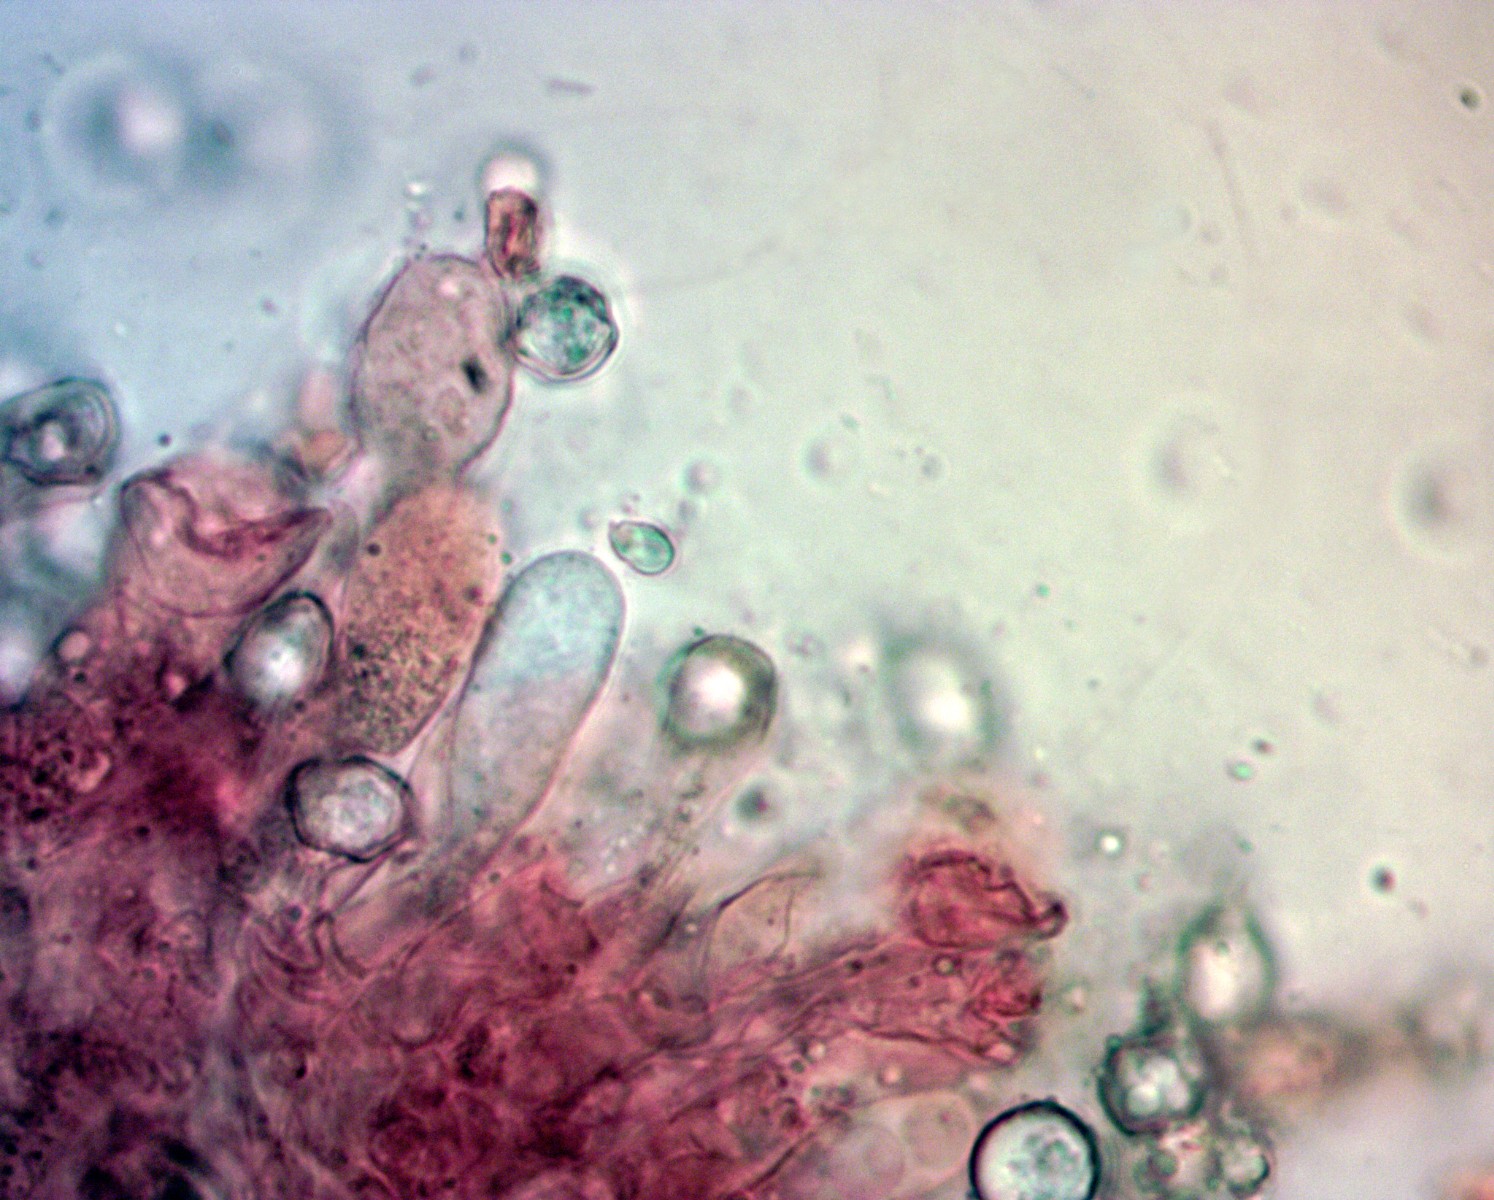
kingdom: Fungi
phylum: Basidiomycota
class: Agaricomycetes
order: Agaricales
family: Entolomataceae
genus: Entoloma
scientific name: Entoloma
